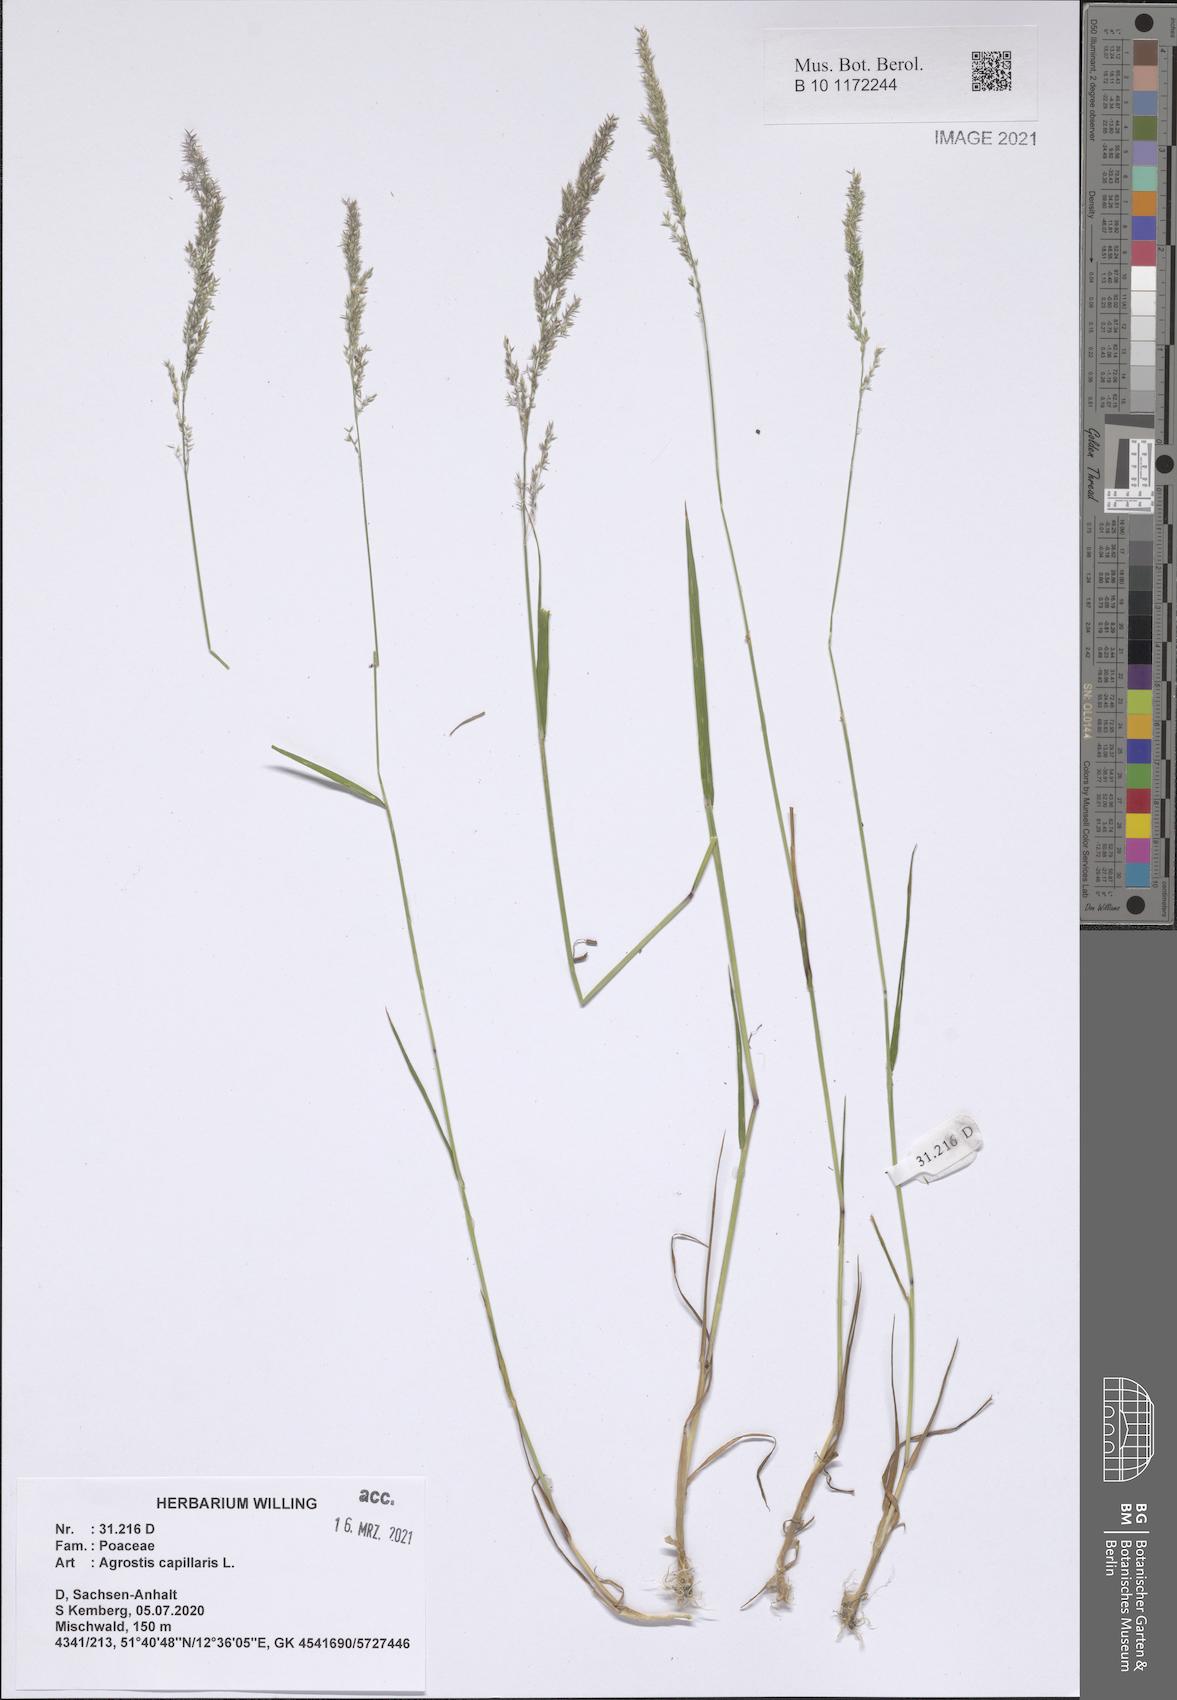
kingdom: Plantae
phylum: Tracheophyta
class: Liliopsida
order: Poales
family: Poaceae
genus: Agrostis
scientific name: Agrostis capillaris
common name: Colonial bentgrass
